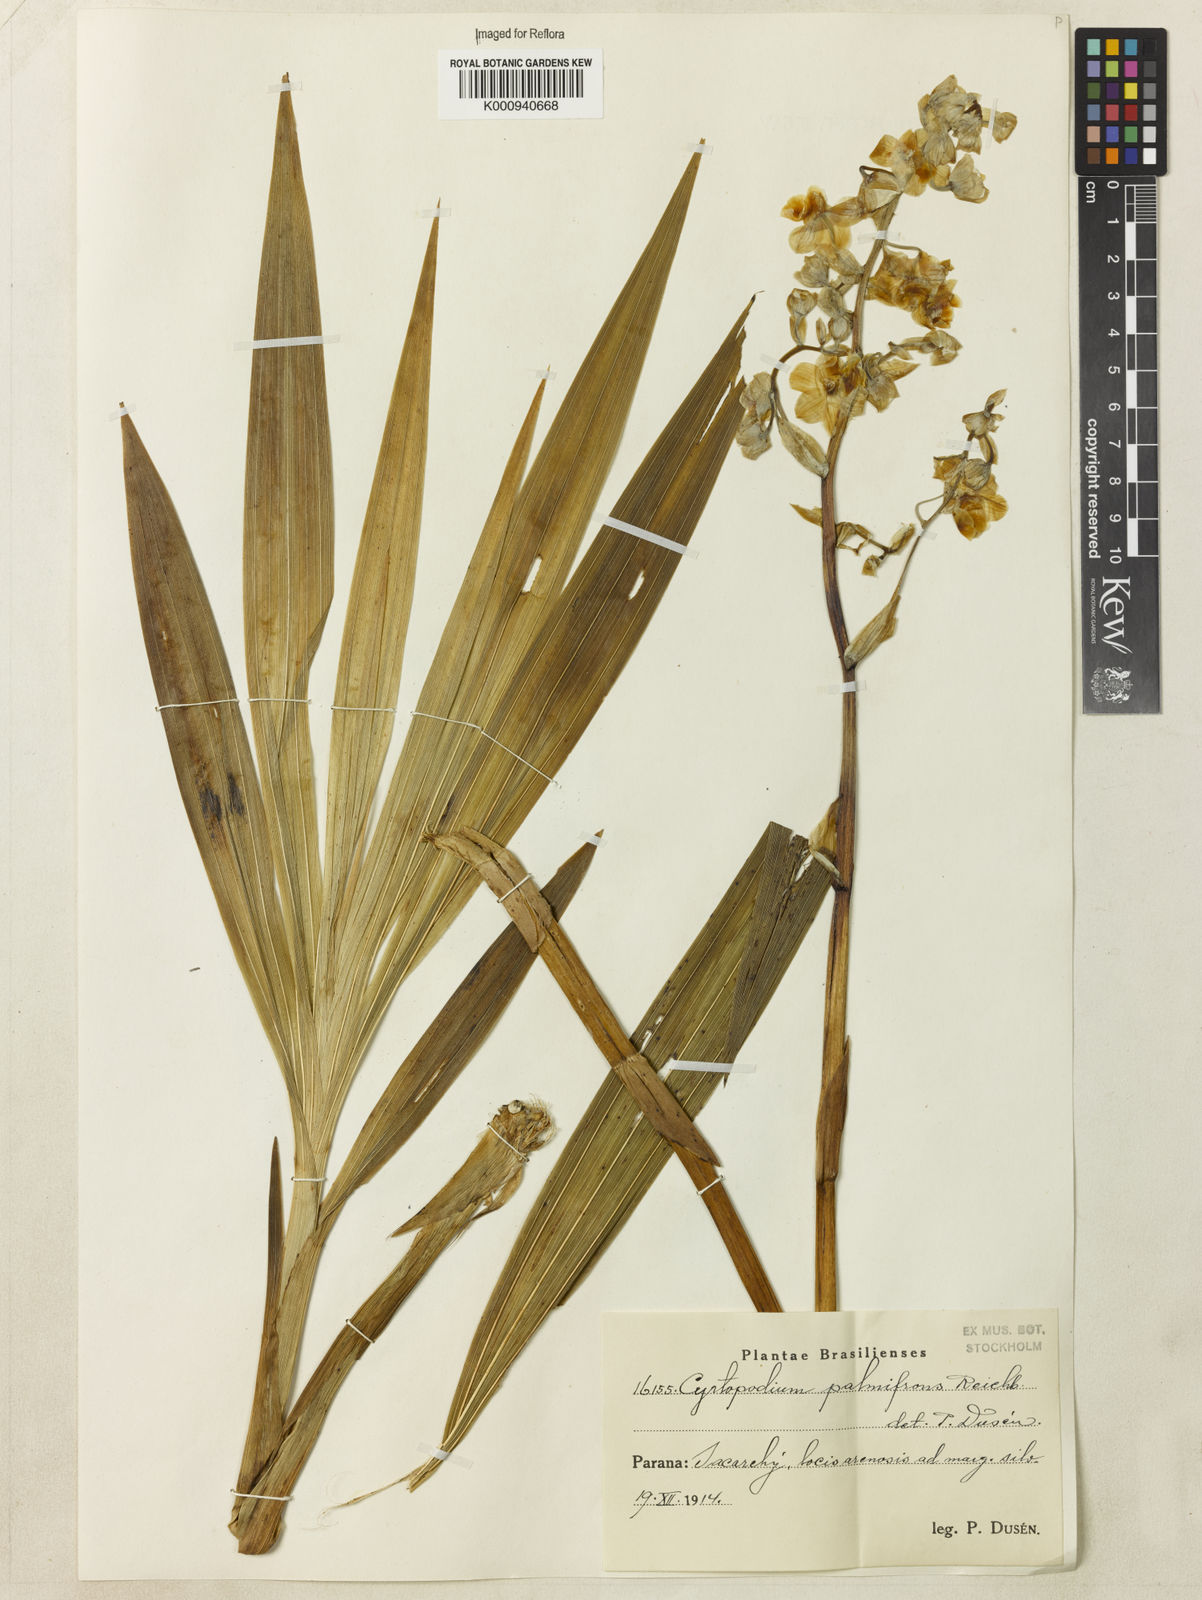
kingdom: Plantae
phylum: Tracheophyta
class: Liliopsida
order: Asparagales
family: Orchidaceae
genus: Cyrtopodium
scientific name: Cyrtopodium palmifrons
